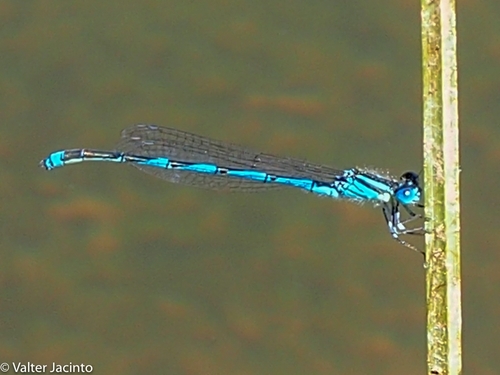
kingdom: Animalia
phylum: Arthropoda
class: Insecta
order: Odonata
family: Coenagrionidae
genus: Erythromma
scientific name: Erythromma lindenii
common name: Blue-eye
